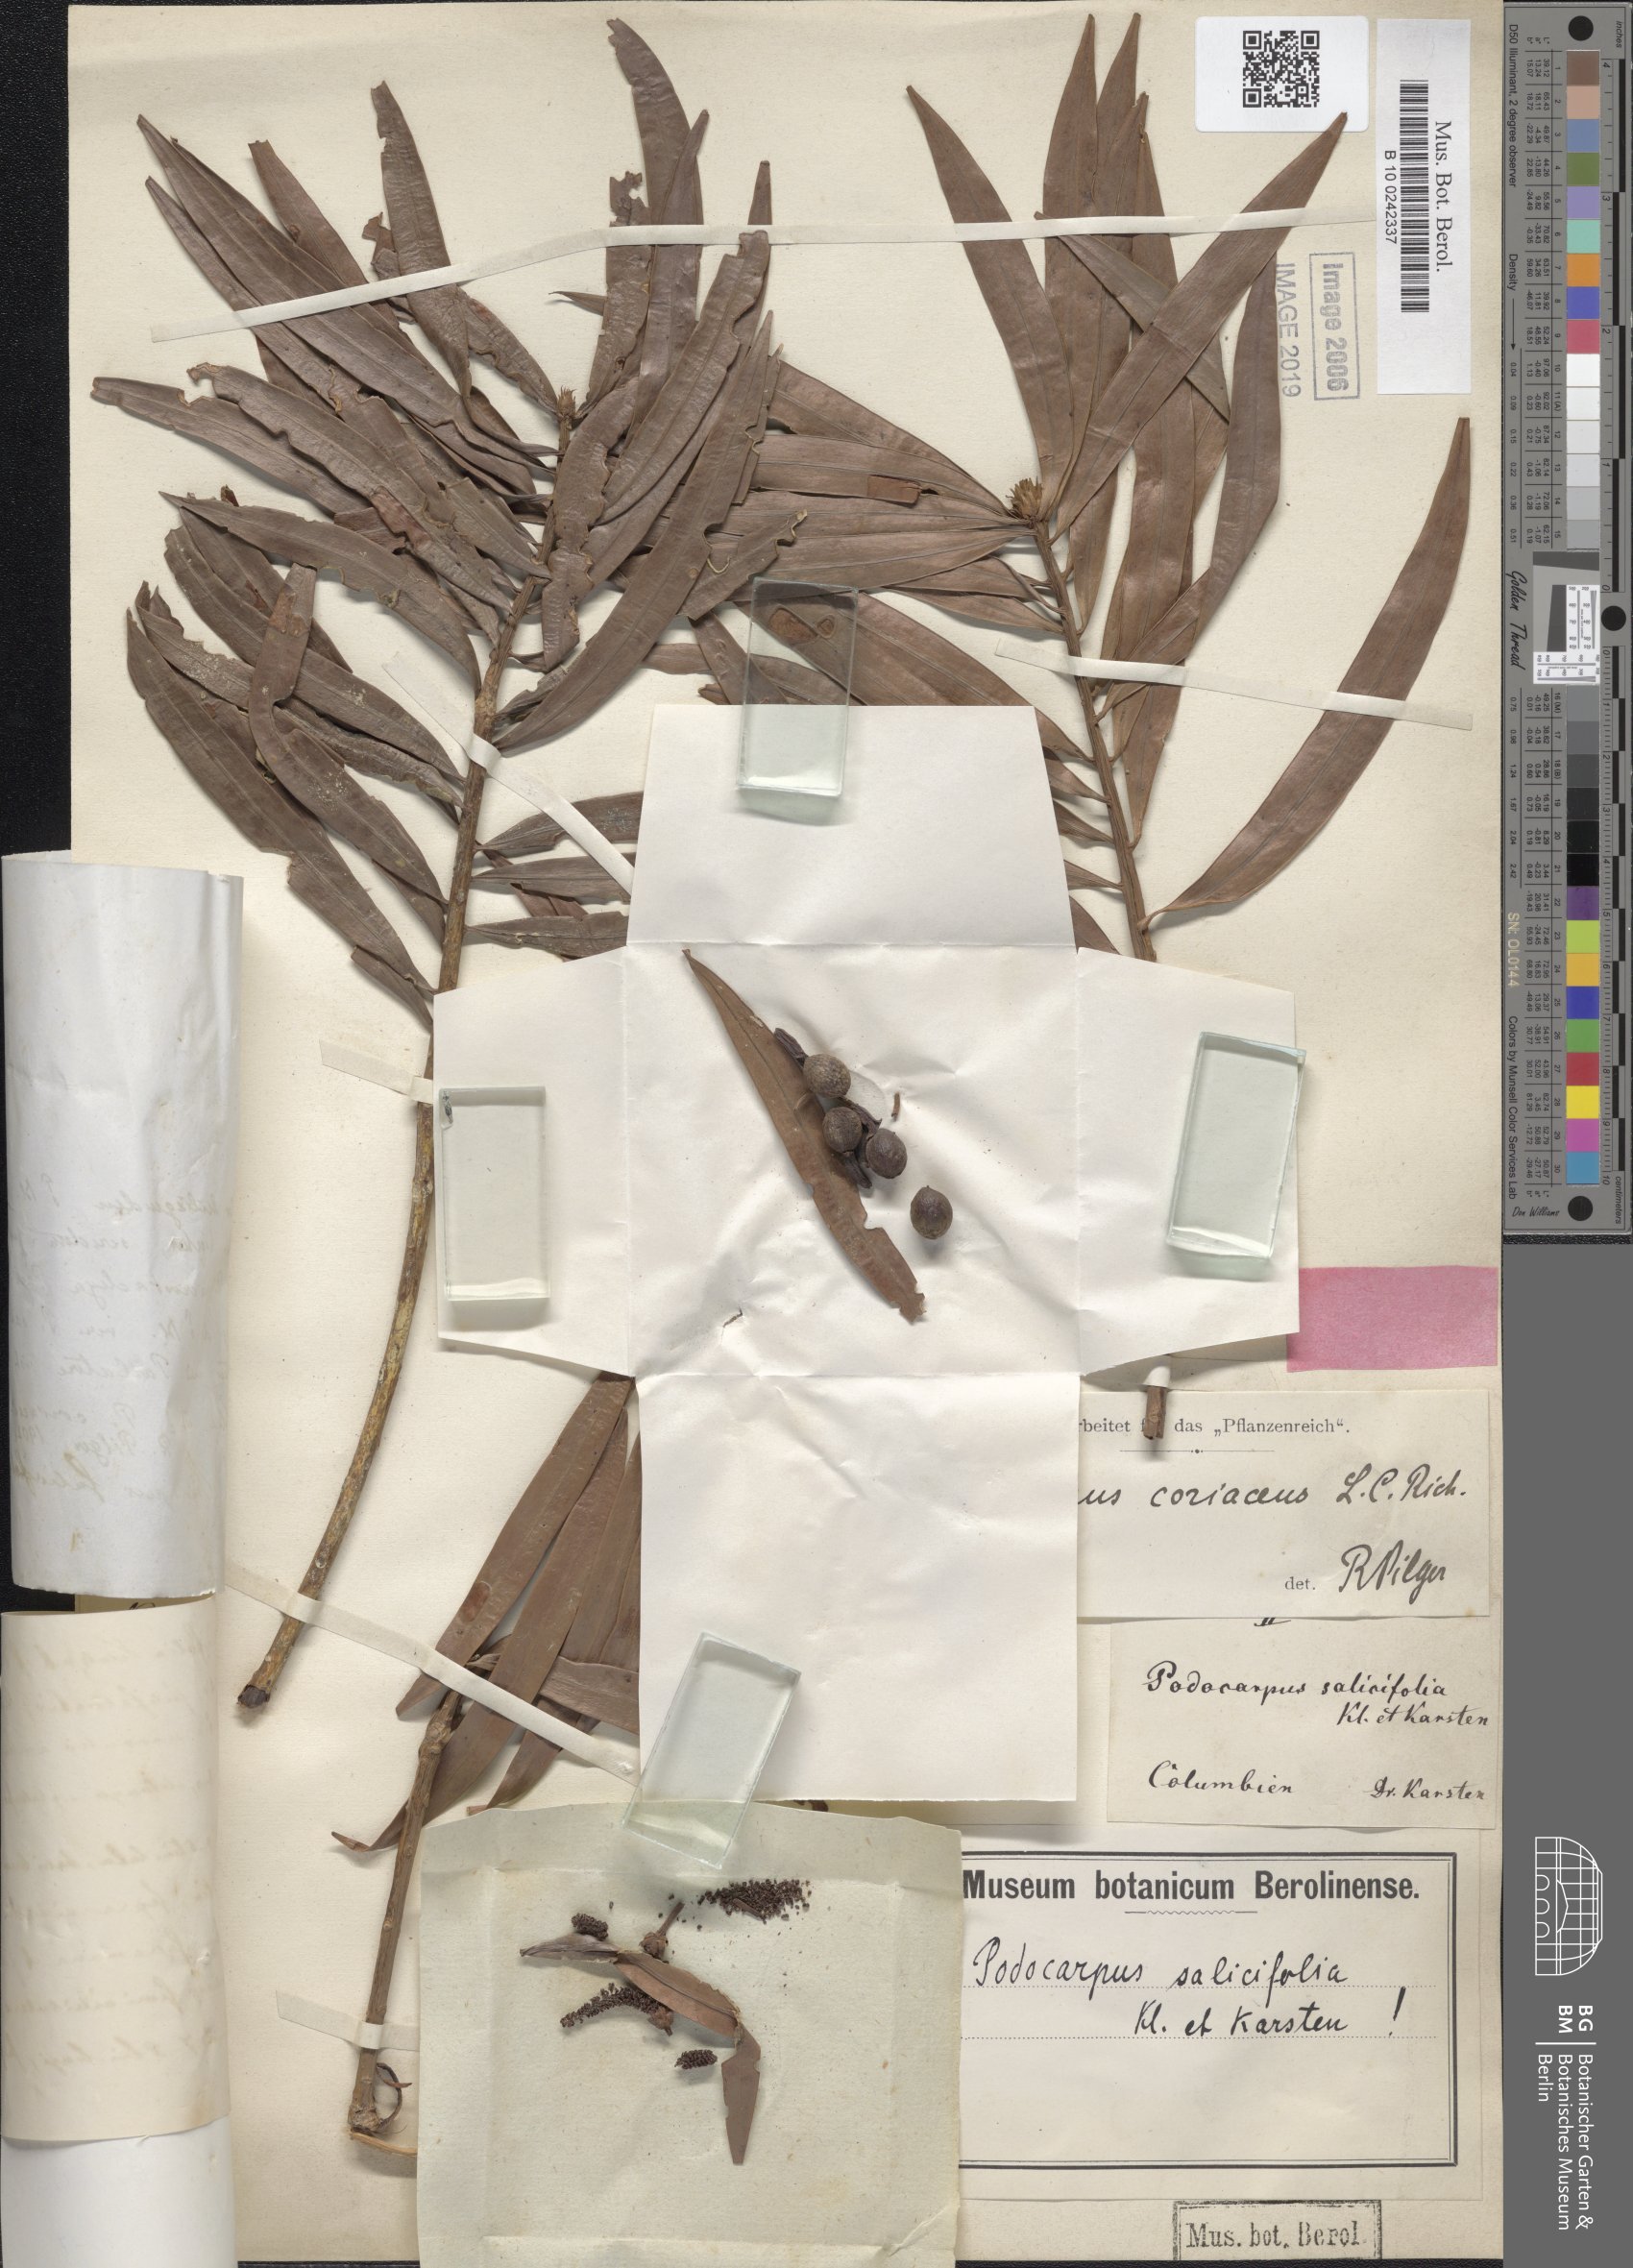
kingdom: Plantae
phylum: Tracheophyta
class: Pinopsida
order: Pinales
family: Podocarpaceae
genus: Podocarpus
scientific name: Podocarpus salicifolius
